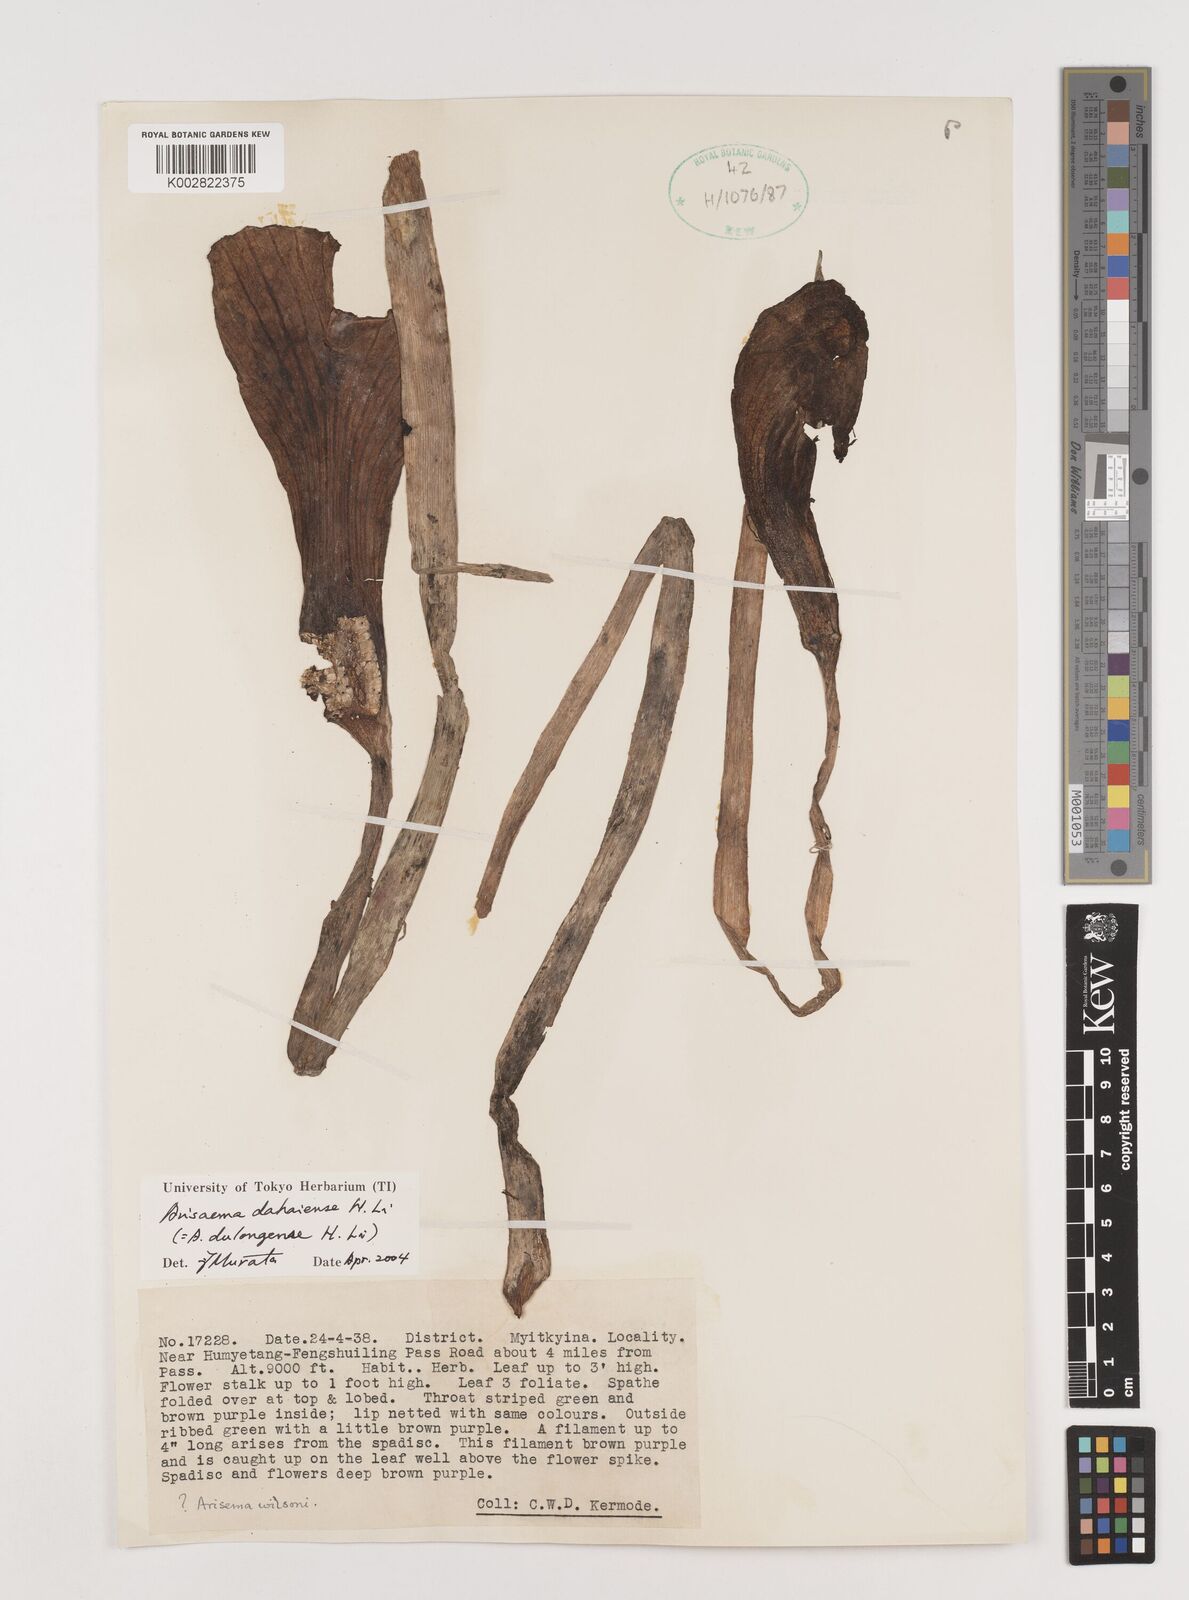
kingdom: Plantae
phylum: Tracheophyta
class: Liliopsida
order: Alismatales
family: Araceae
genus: Arisaema
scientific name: Arisaema dahaiense
